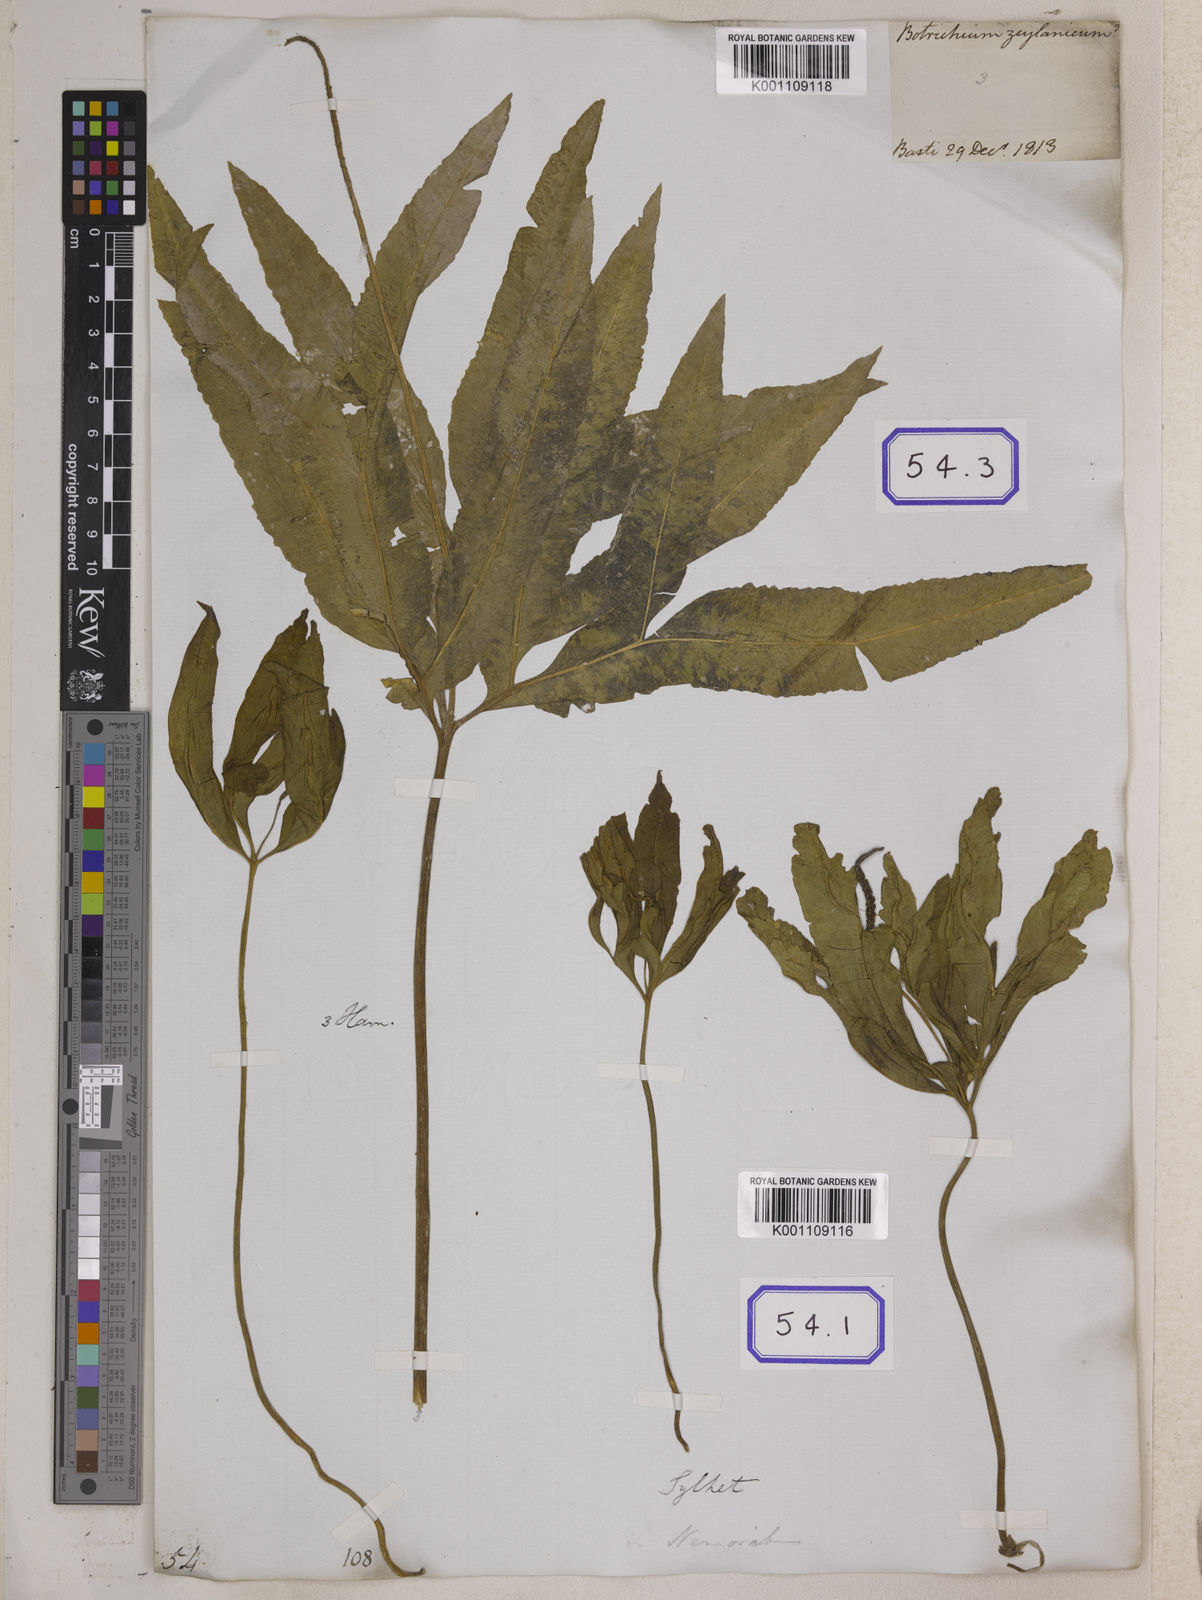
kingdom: Plantae
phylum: Tracheophyta
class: Polypodiopsida
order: Ophioglossales
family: Ophioglossaceae
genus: Helminthostachys
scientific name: Helminthostachys zeylanica
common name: Flowering fern
